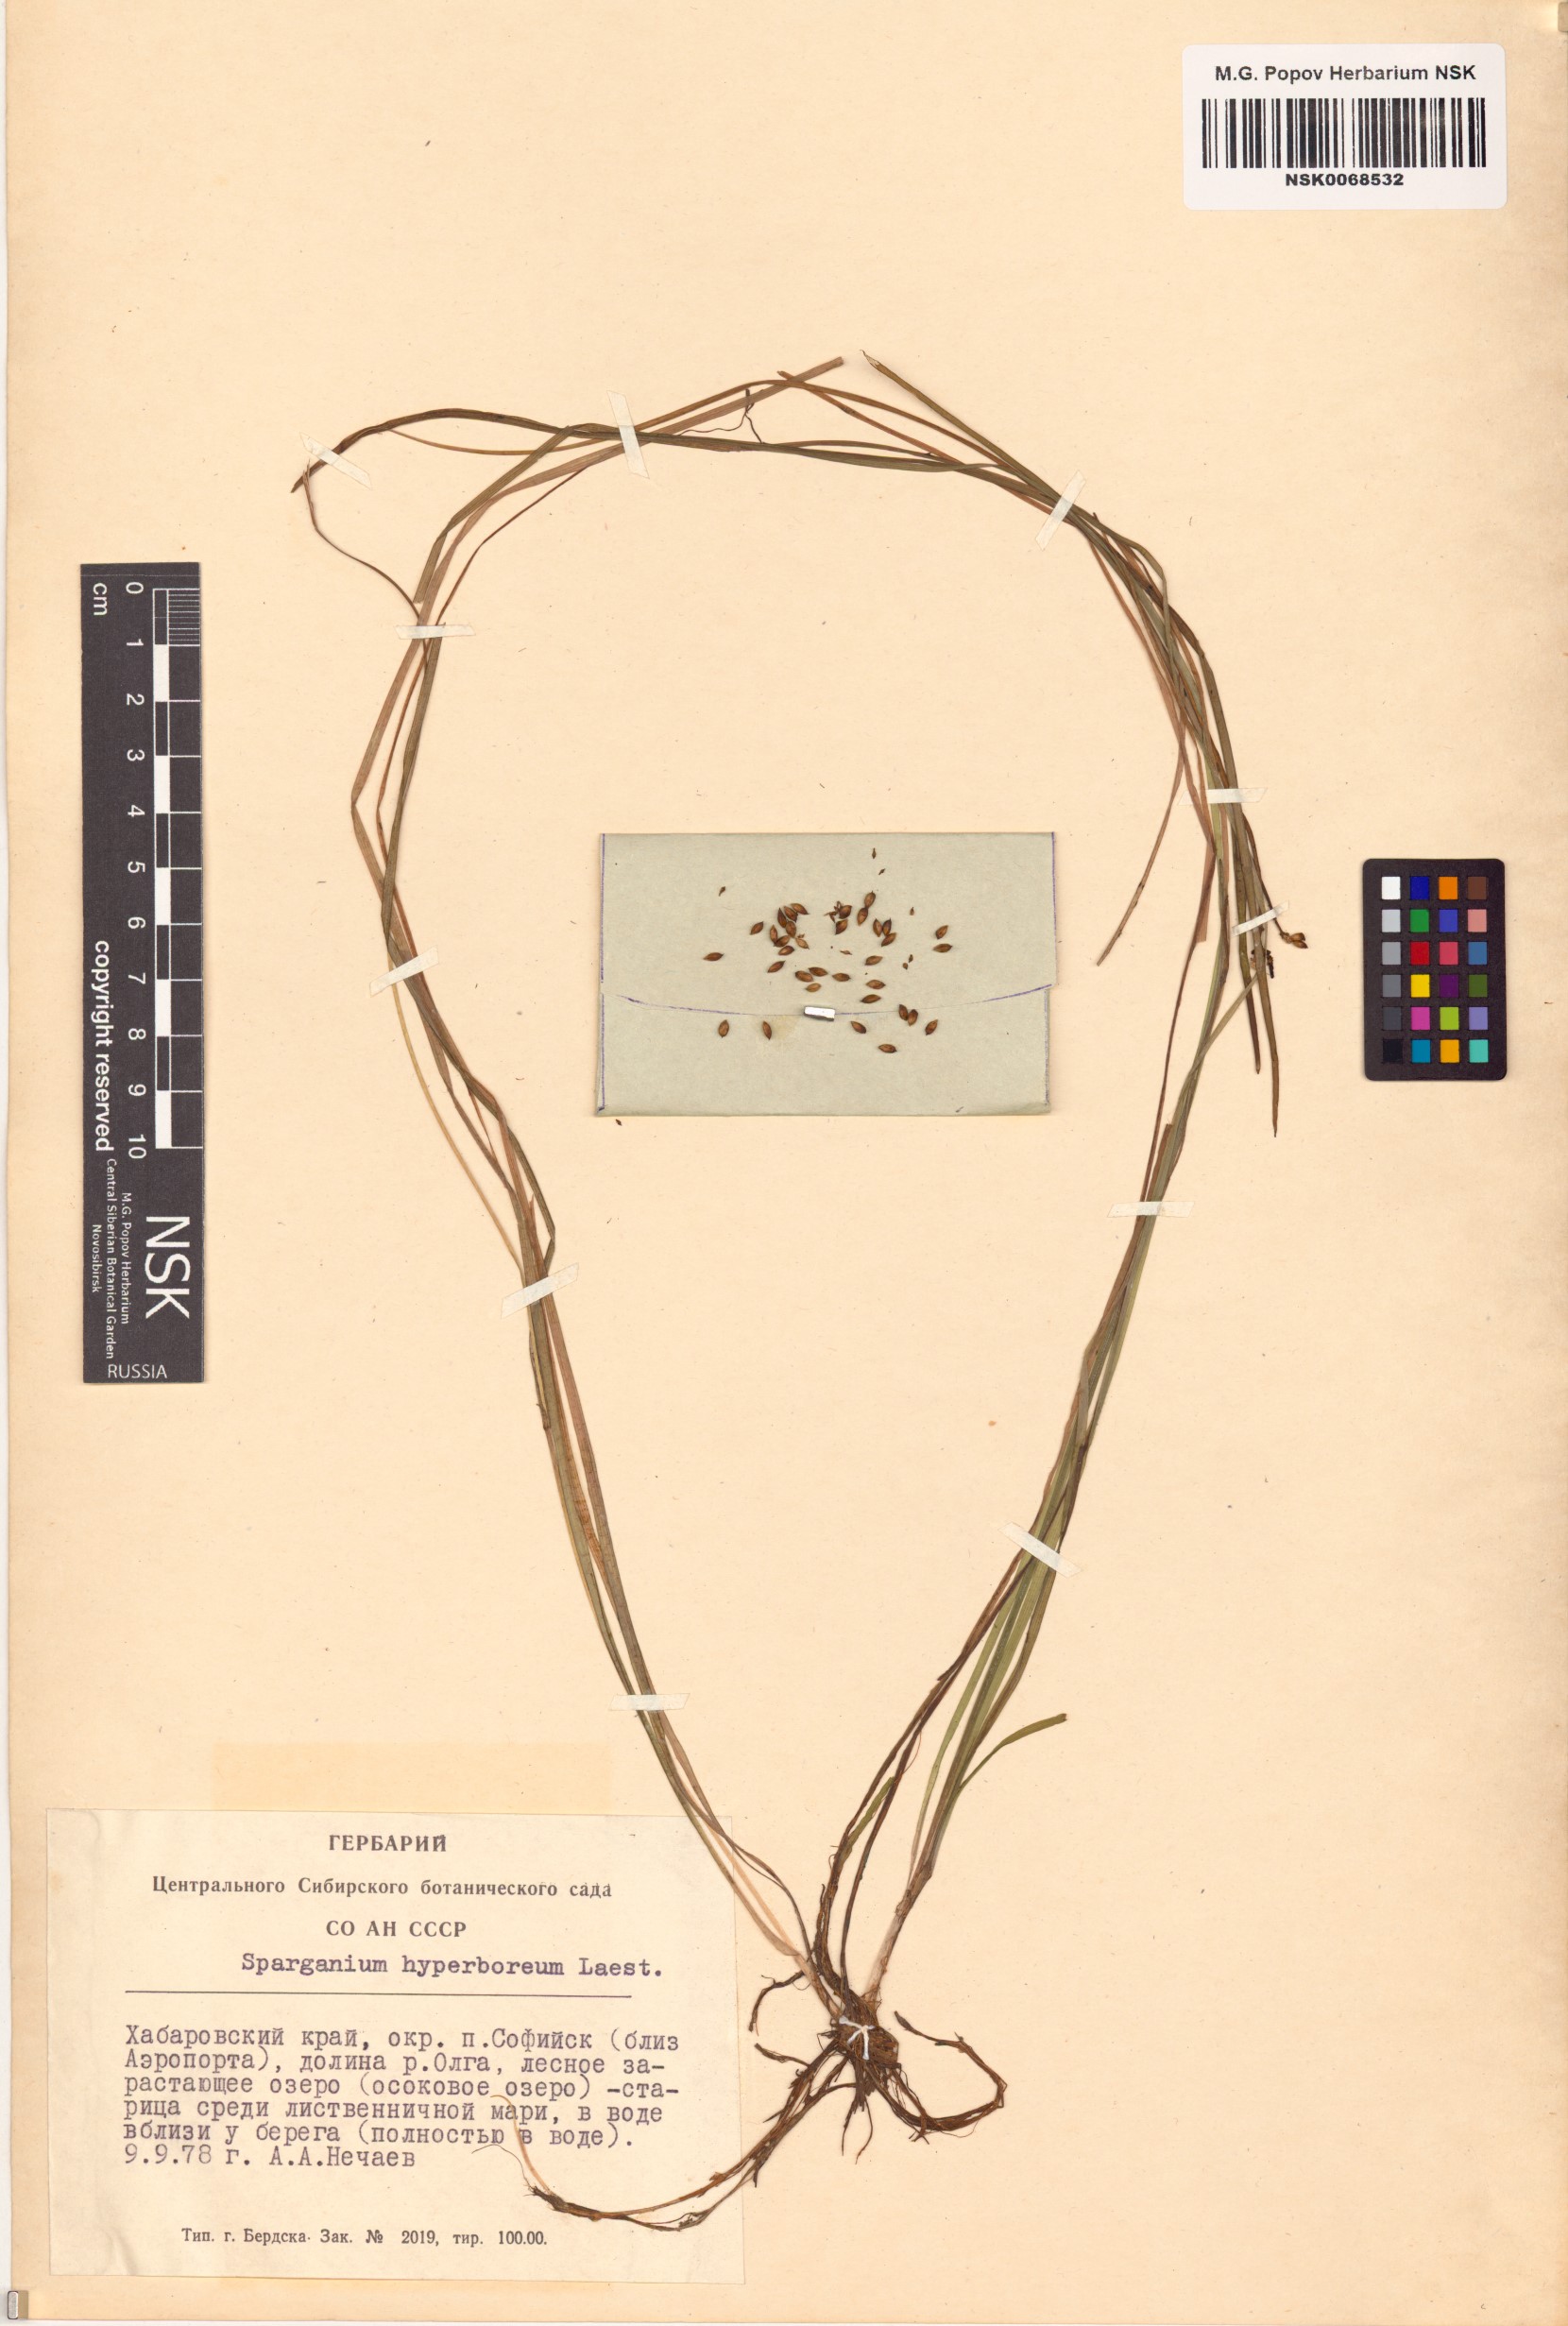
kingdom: Plantae
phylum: Tracheophyta
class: Liliopsida
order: Poales
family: Typhaceae
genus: Sparganium
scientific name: Sparganium hyperboreum
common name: Arctic burreed
